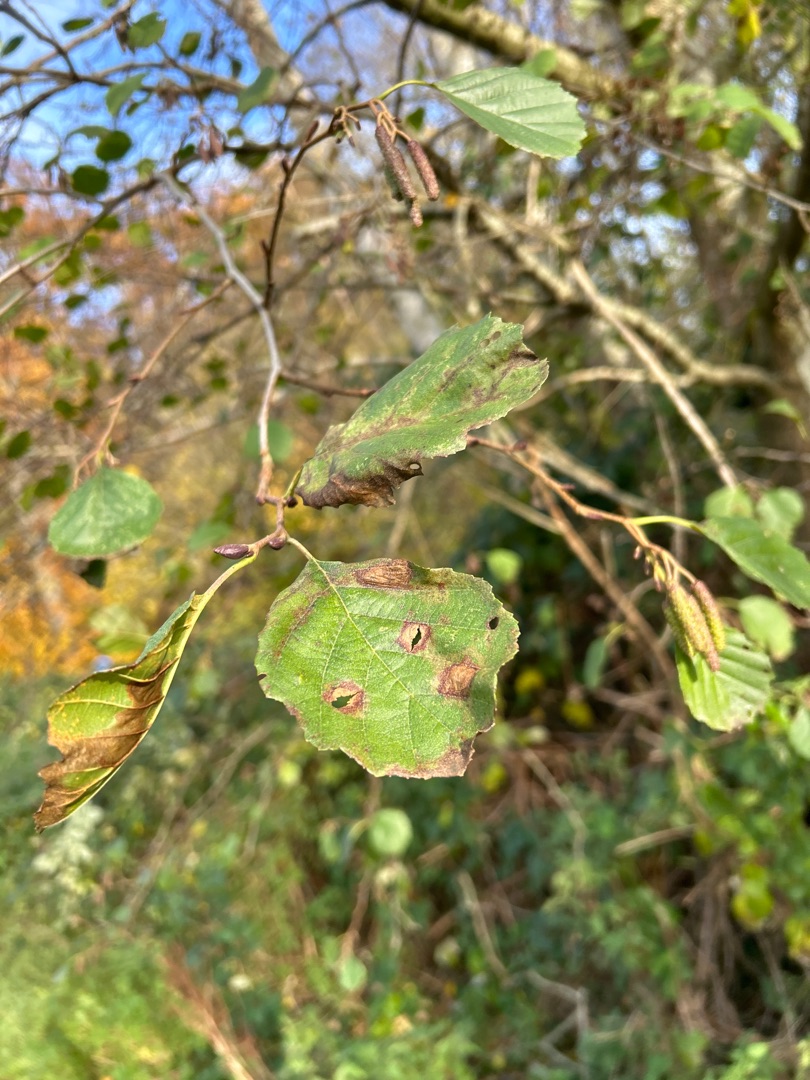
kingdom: Plantae
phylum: Tracheophyta
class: Magnoliopsida
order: Fagales
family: Betulaceae
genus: Alnus
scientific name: Alnus glutinosa
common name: Rød-el
